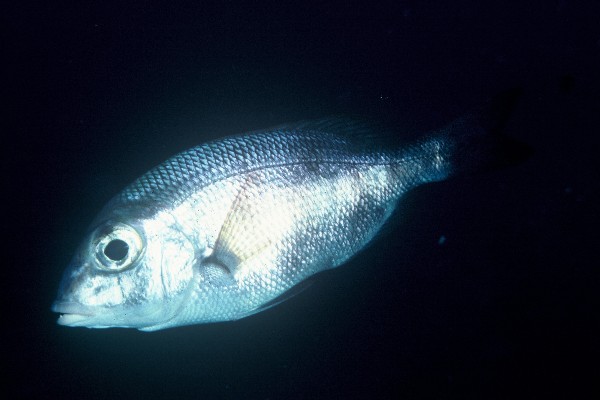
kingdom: Animalia
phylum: Chordata
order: Perciformes
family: Lethrinidae
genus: Gymnocranius
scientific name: Gymnocranius griseus
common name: Grey emperor
